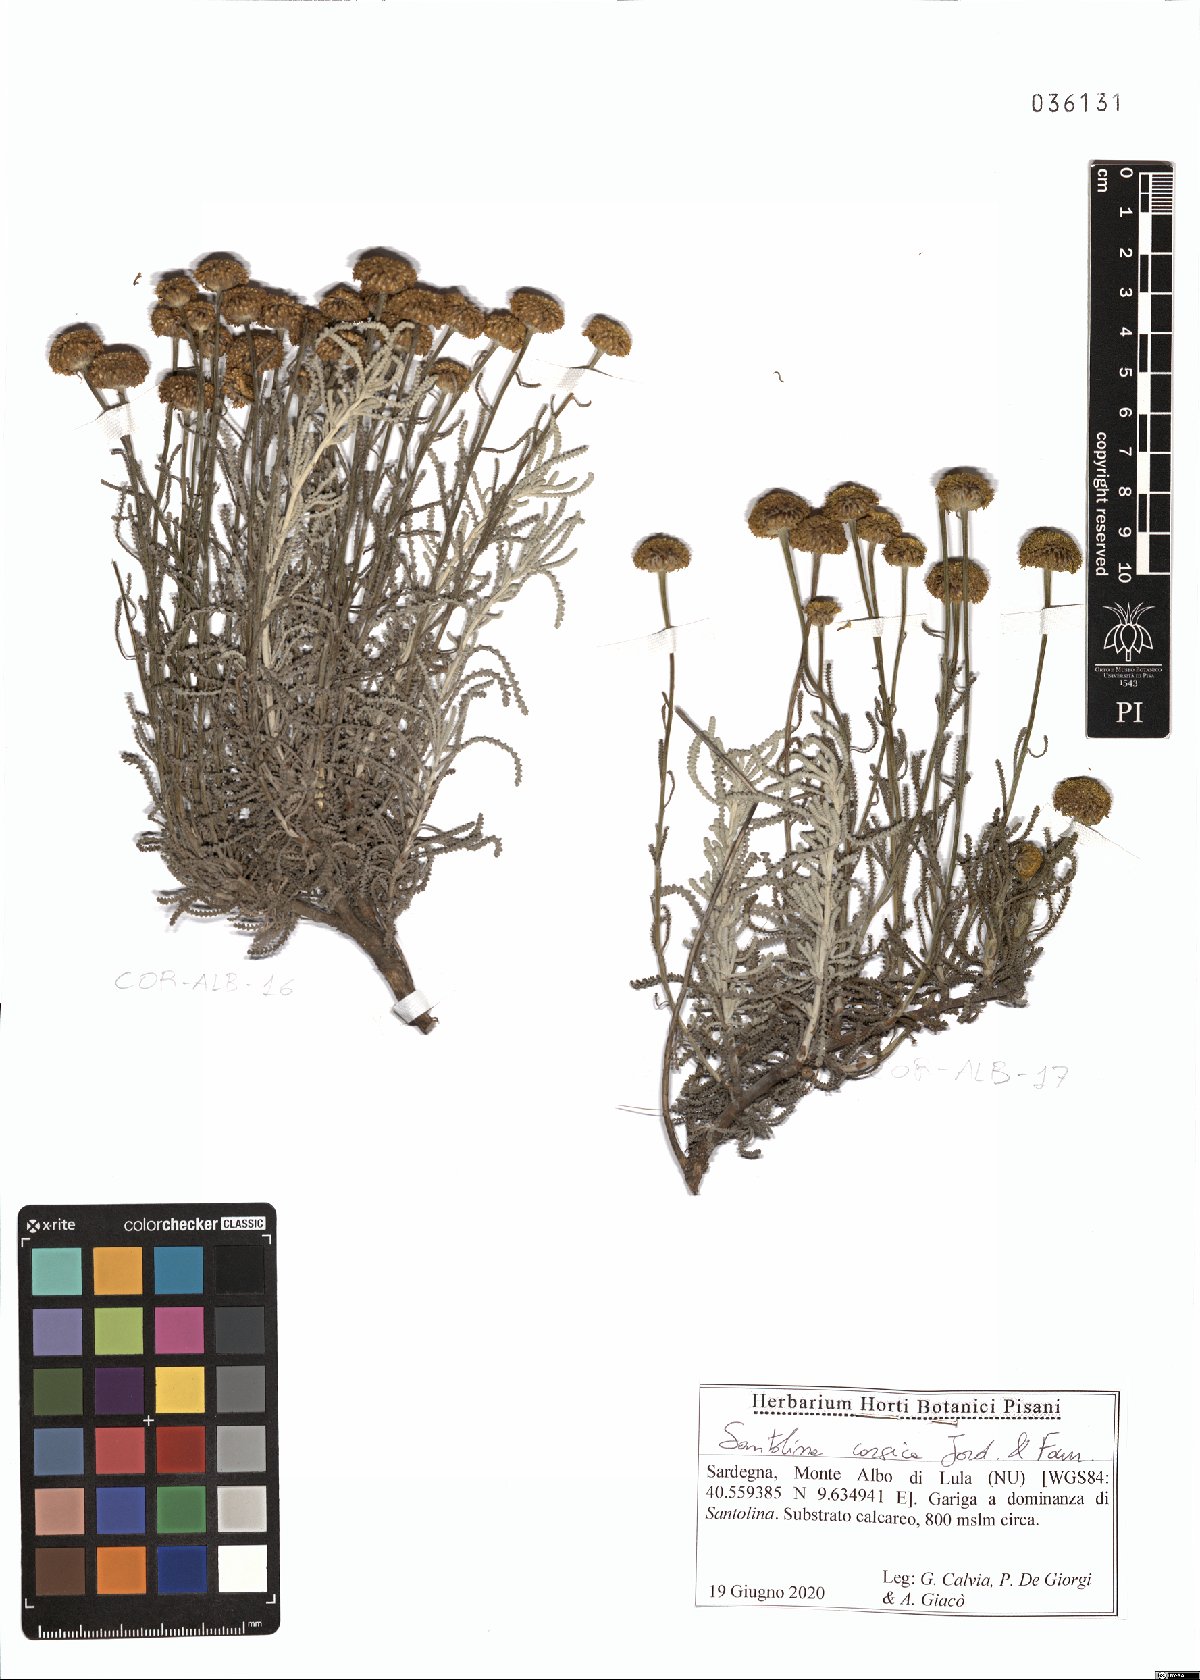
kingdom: Plantae
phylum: Tracheophyta
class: Magnoliopsida
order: Asterales
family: Asteraceae
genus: Santolina
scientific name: Santolina corsica
